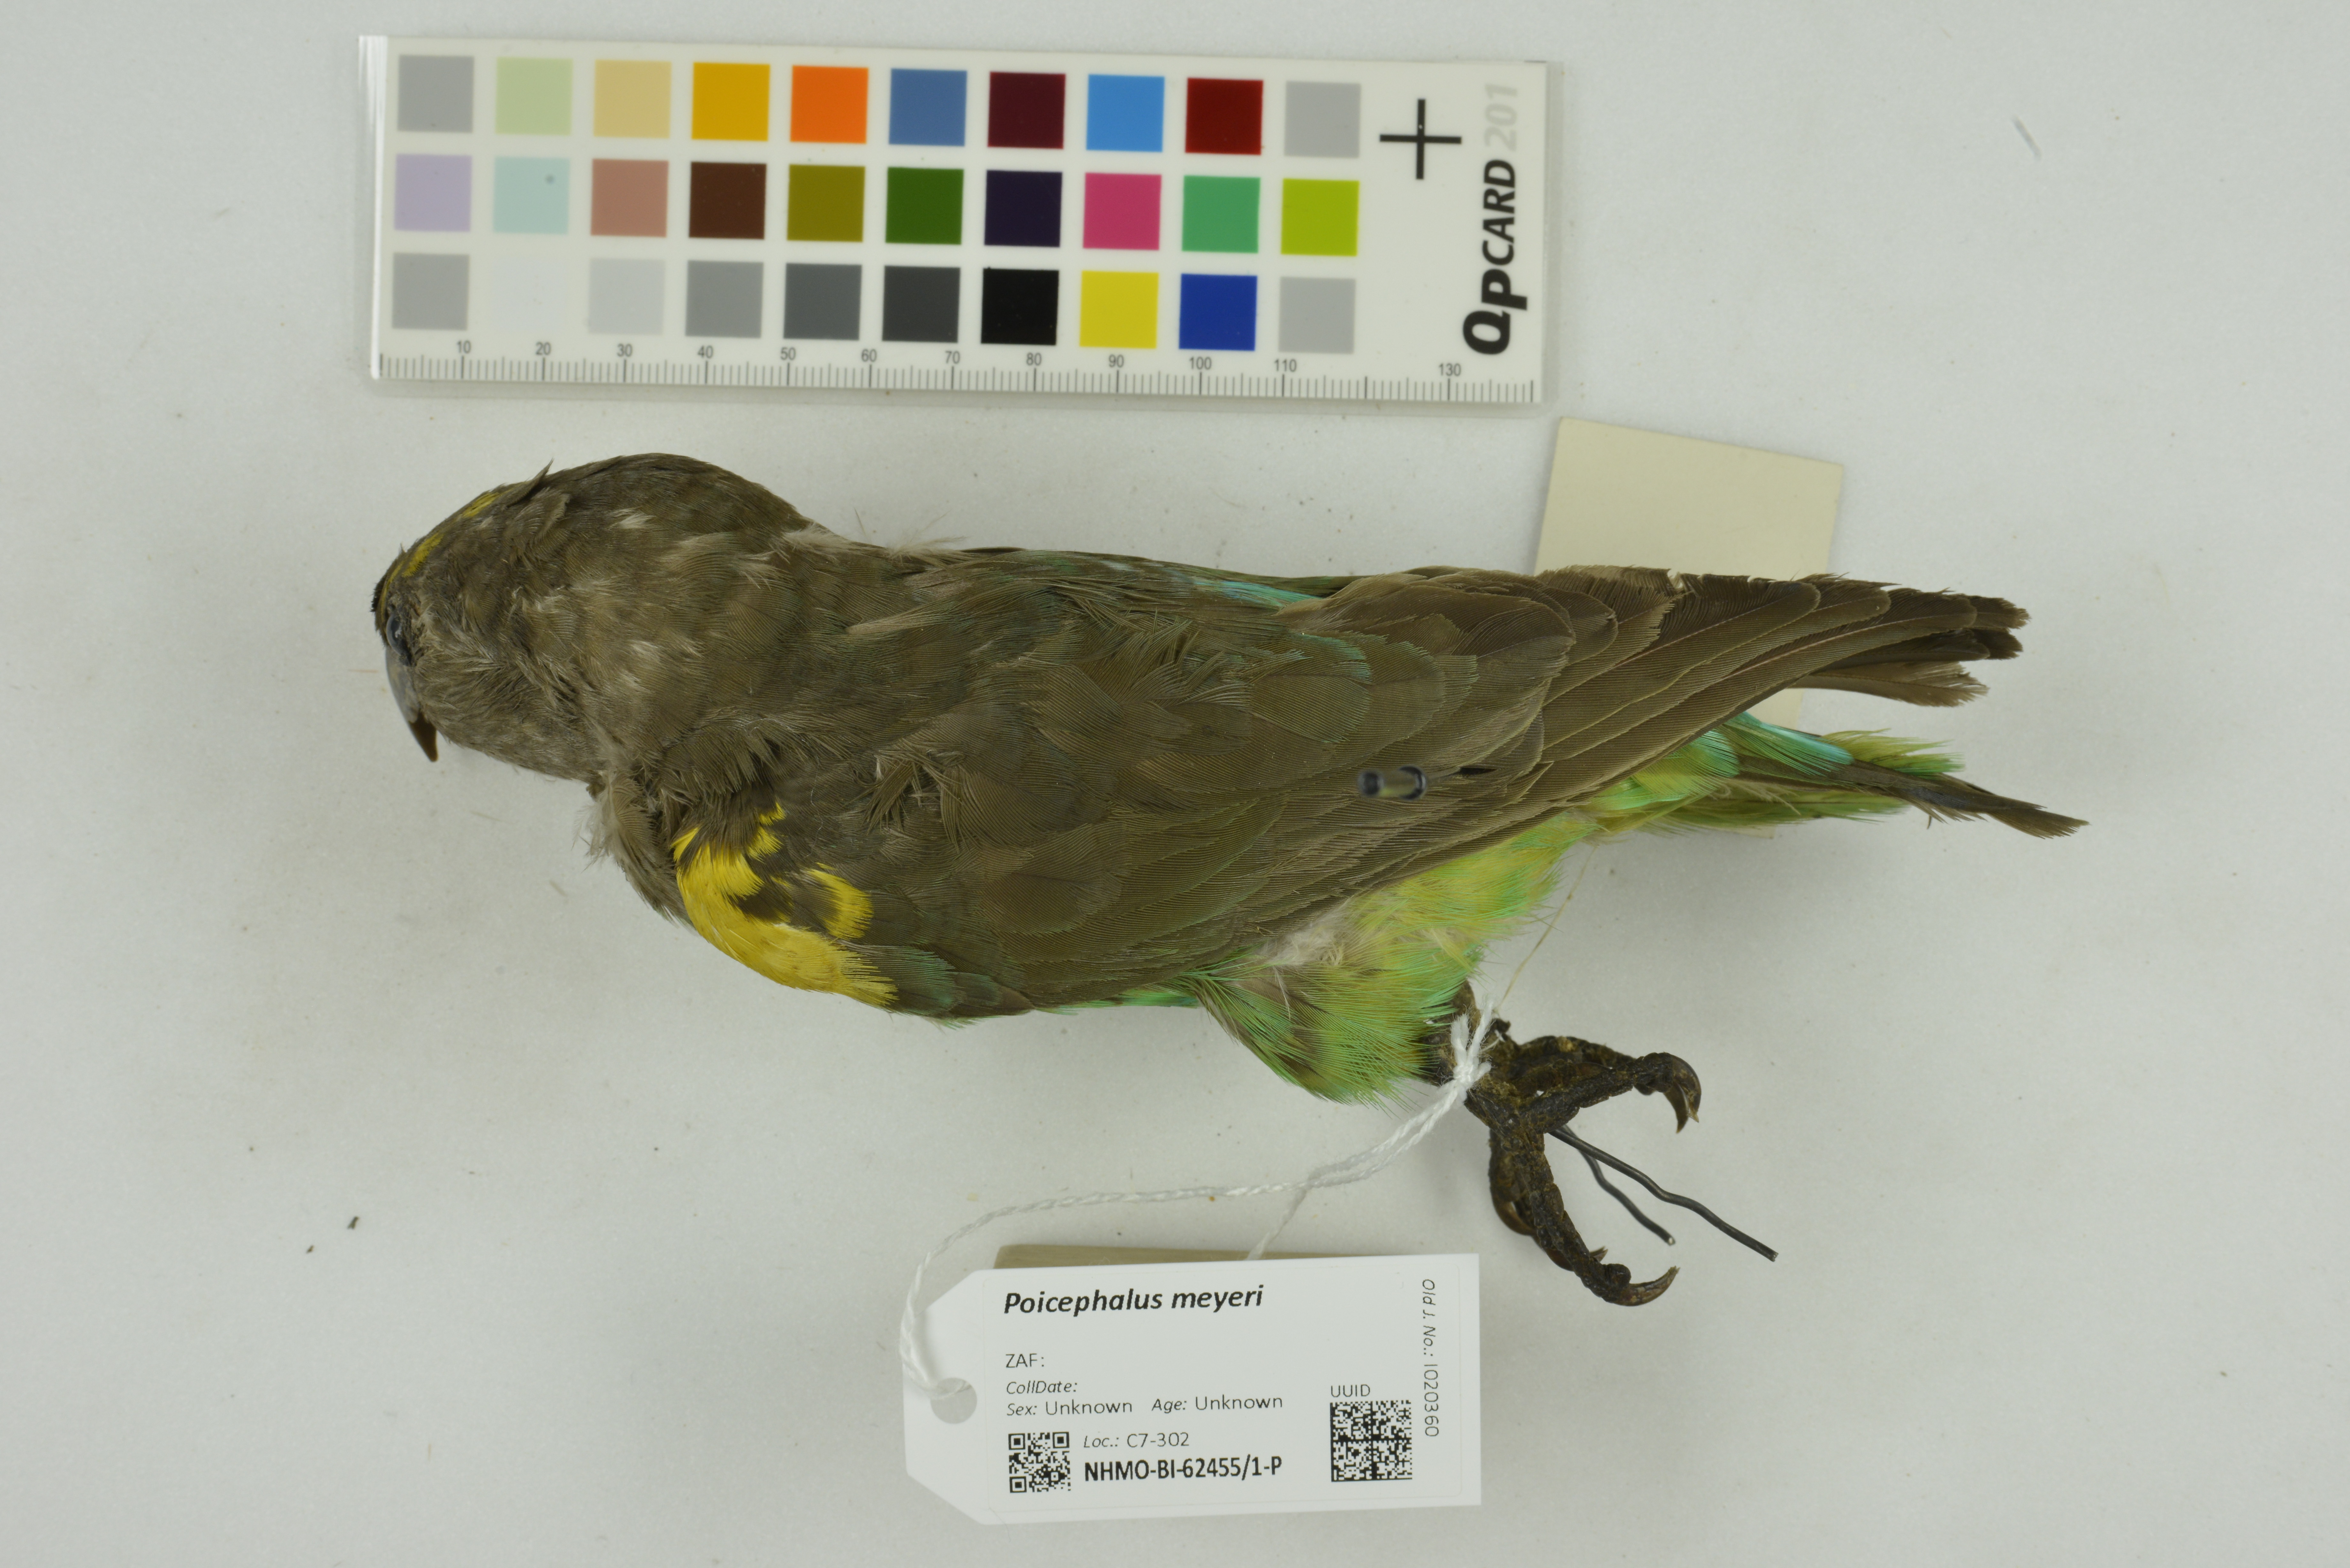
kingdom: Animalia
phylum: Chordata
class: Aves
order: Psittaciformes
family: Psittacidae
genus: Poicephalus
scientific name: Poicephalus meyeri
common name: Meyer's parrot
